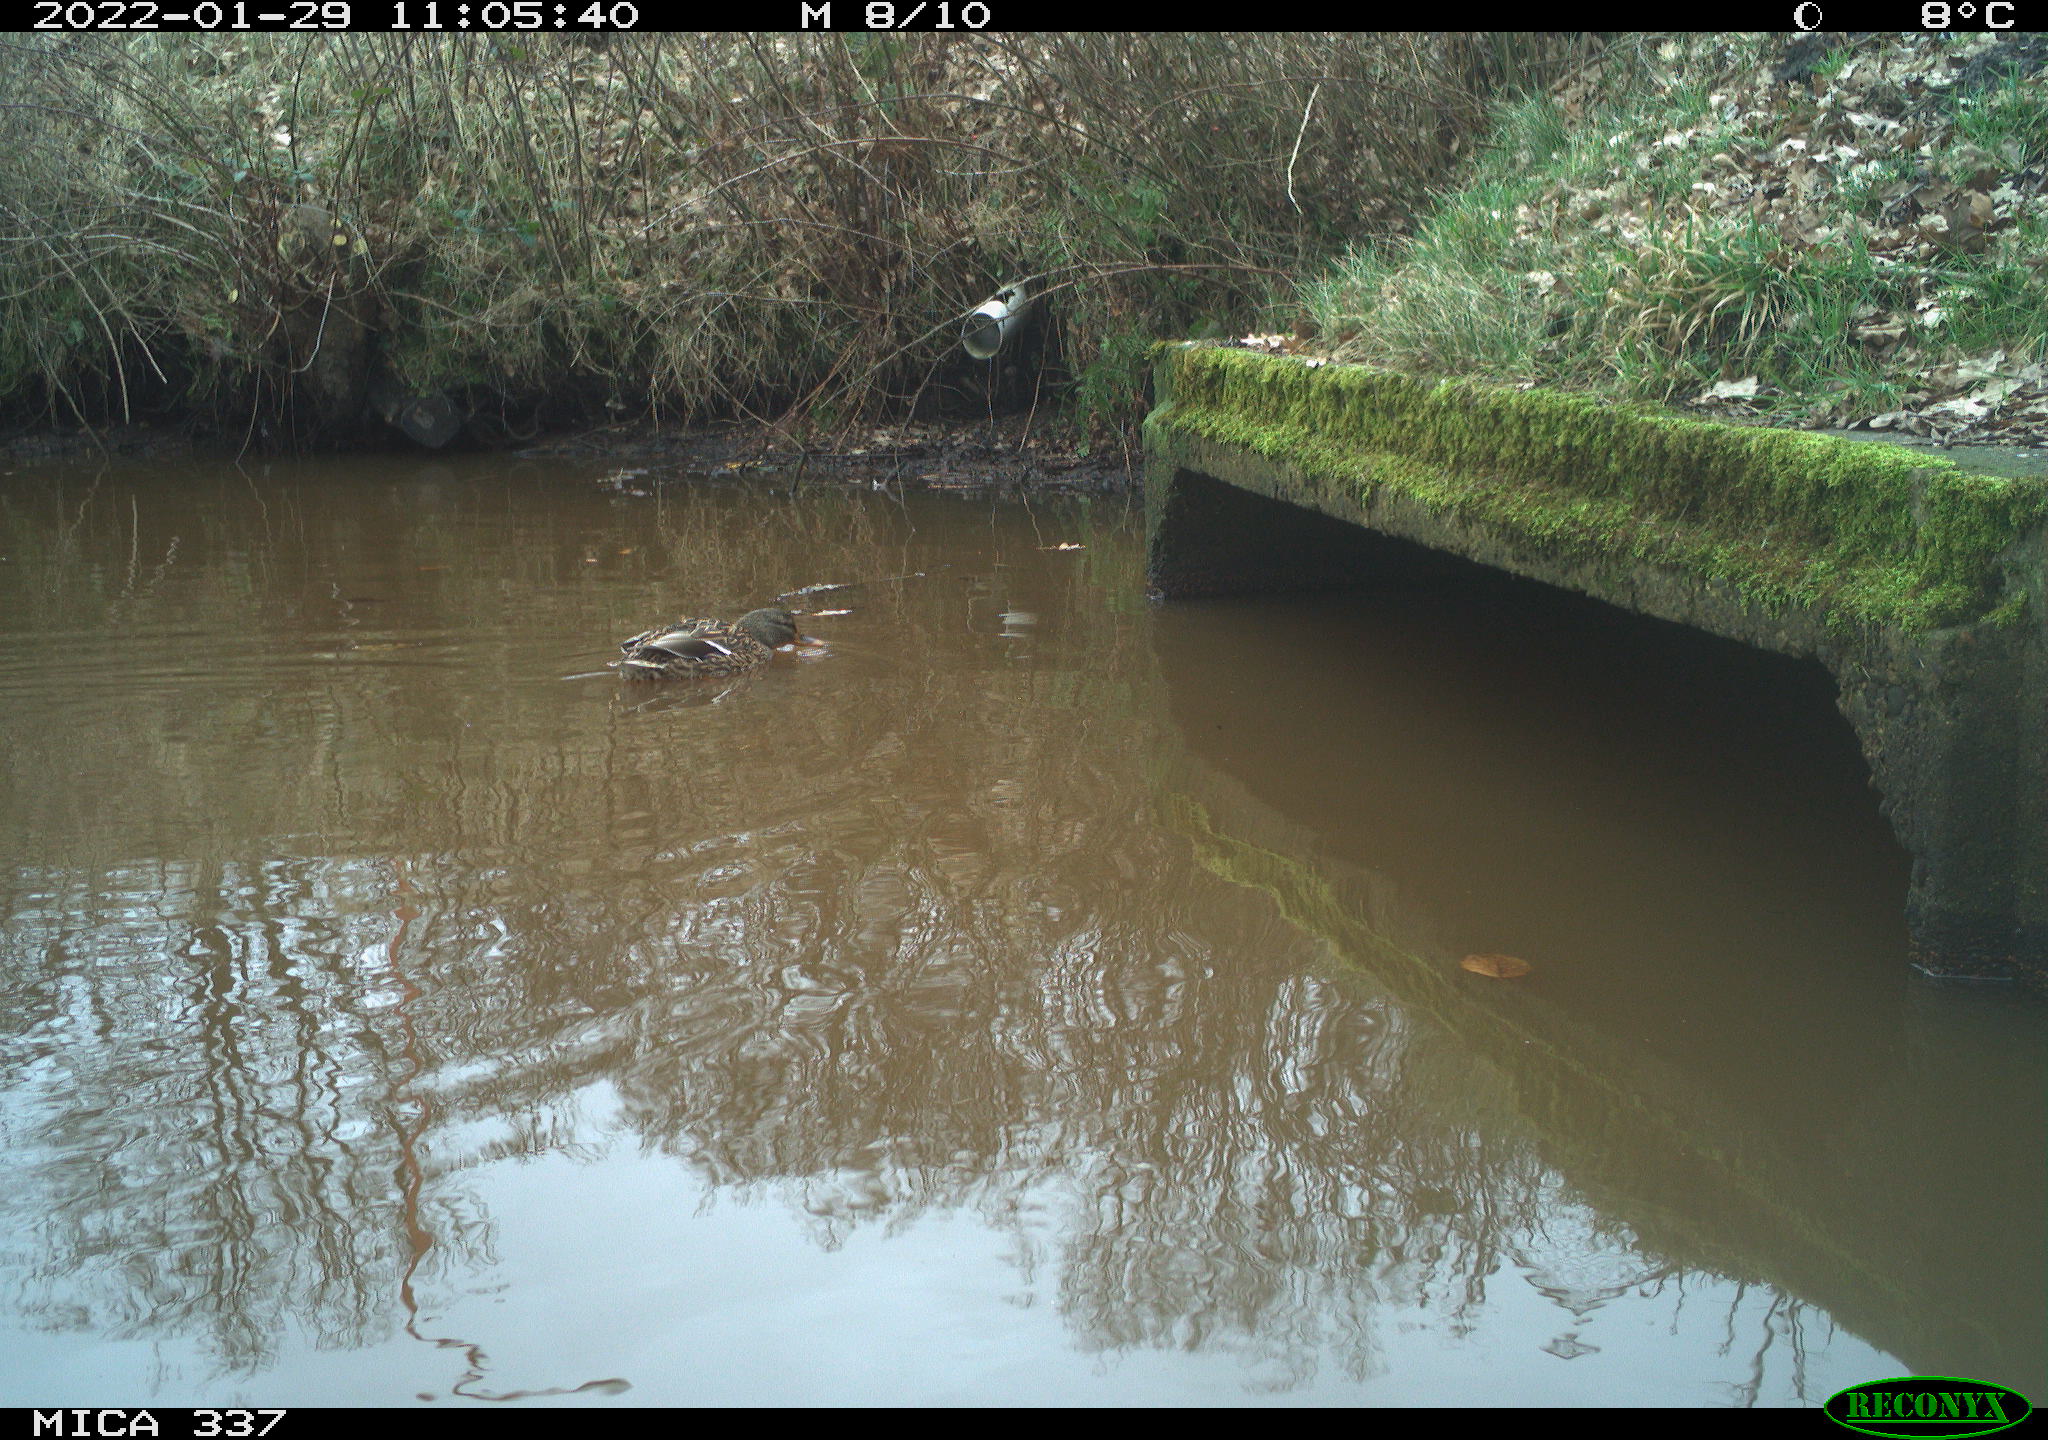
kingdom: Animalia
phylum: Chordata
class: Aves
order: Anseriformes
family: Anatidae
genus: Anas
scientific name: Anas platyrhynchos
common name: Mallard
